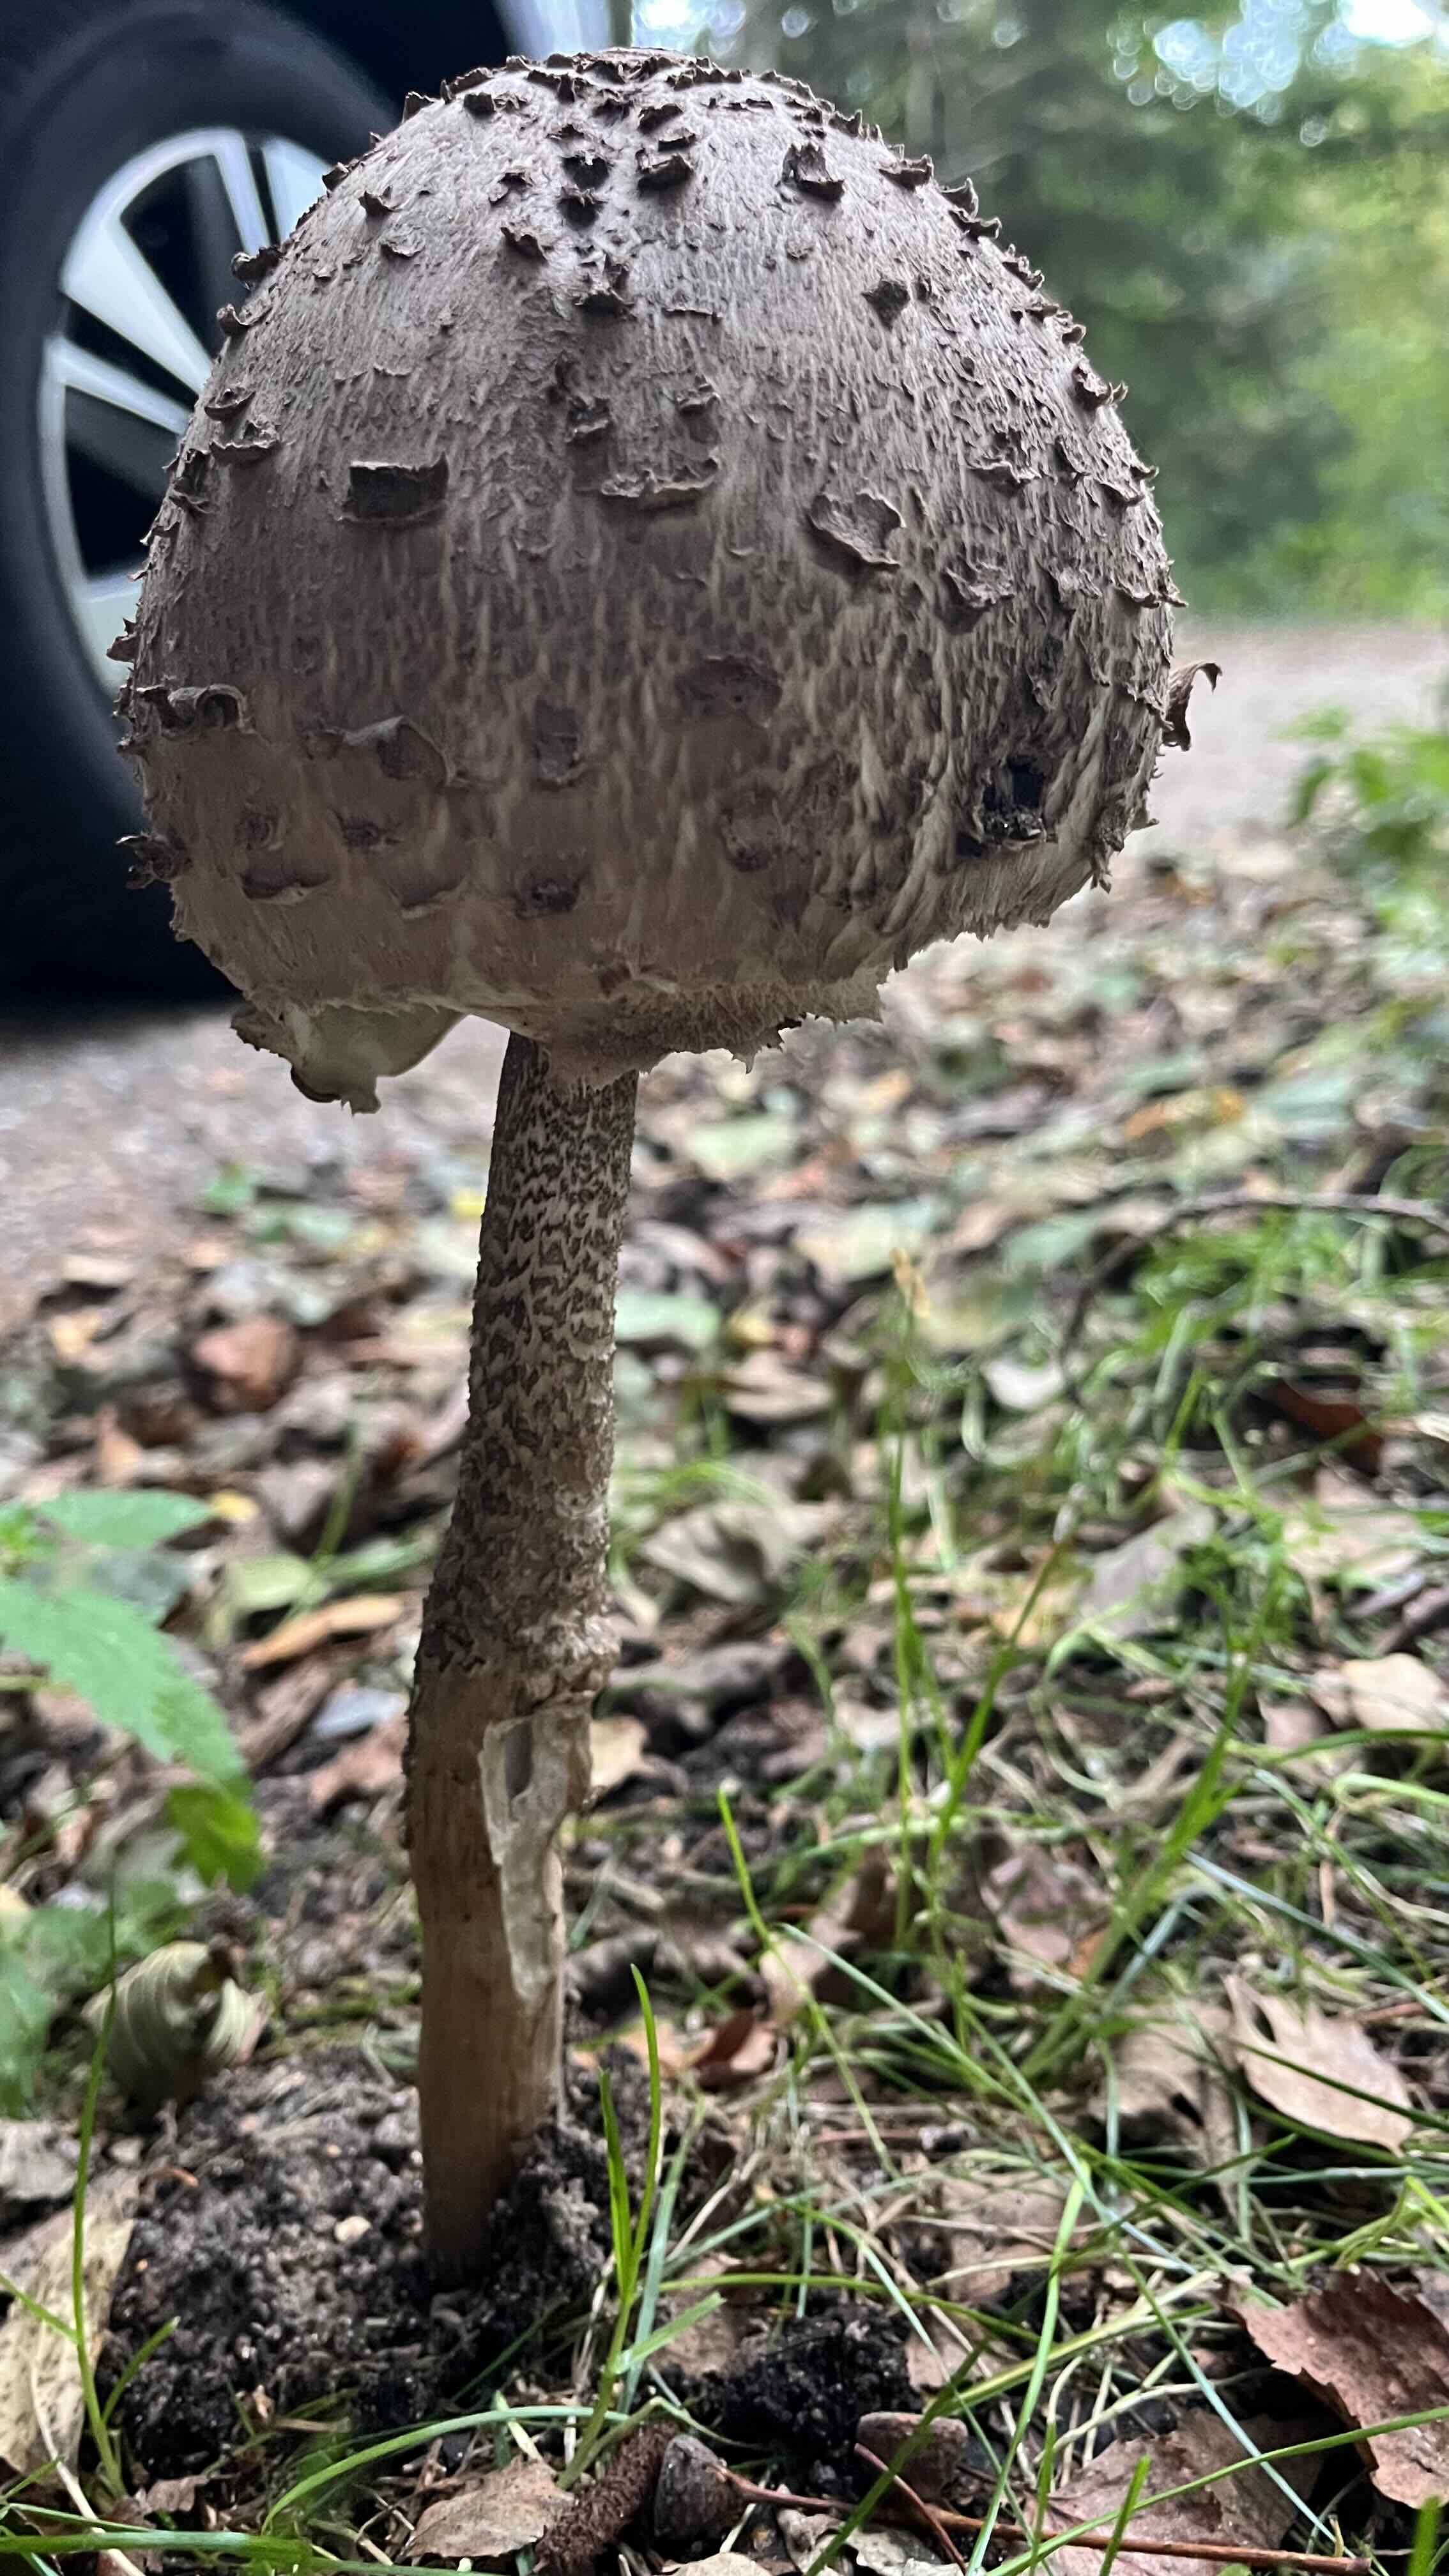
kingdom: Fungi
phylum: Basidiomycota
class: Agaricomycetes
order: Agaricales
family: Agaricaceae
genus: Macrolepiota
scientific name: Macrolepiota procera
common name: stor kæmpeparasolhat
